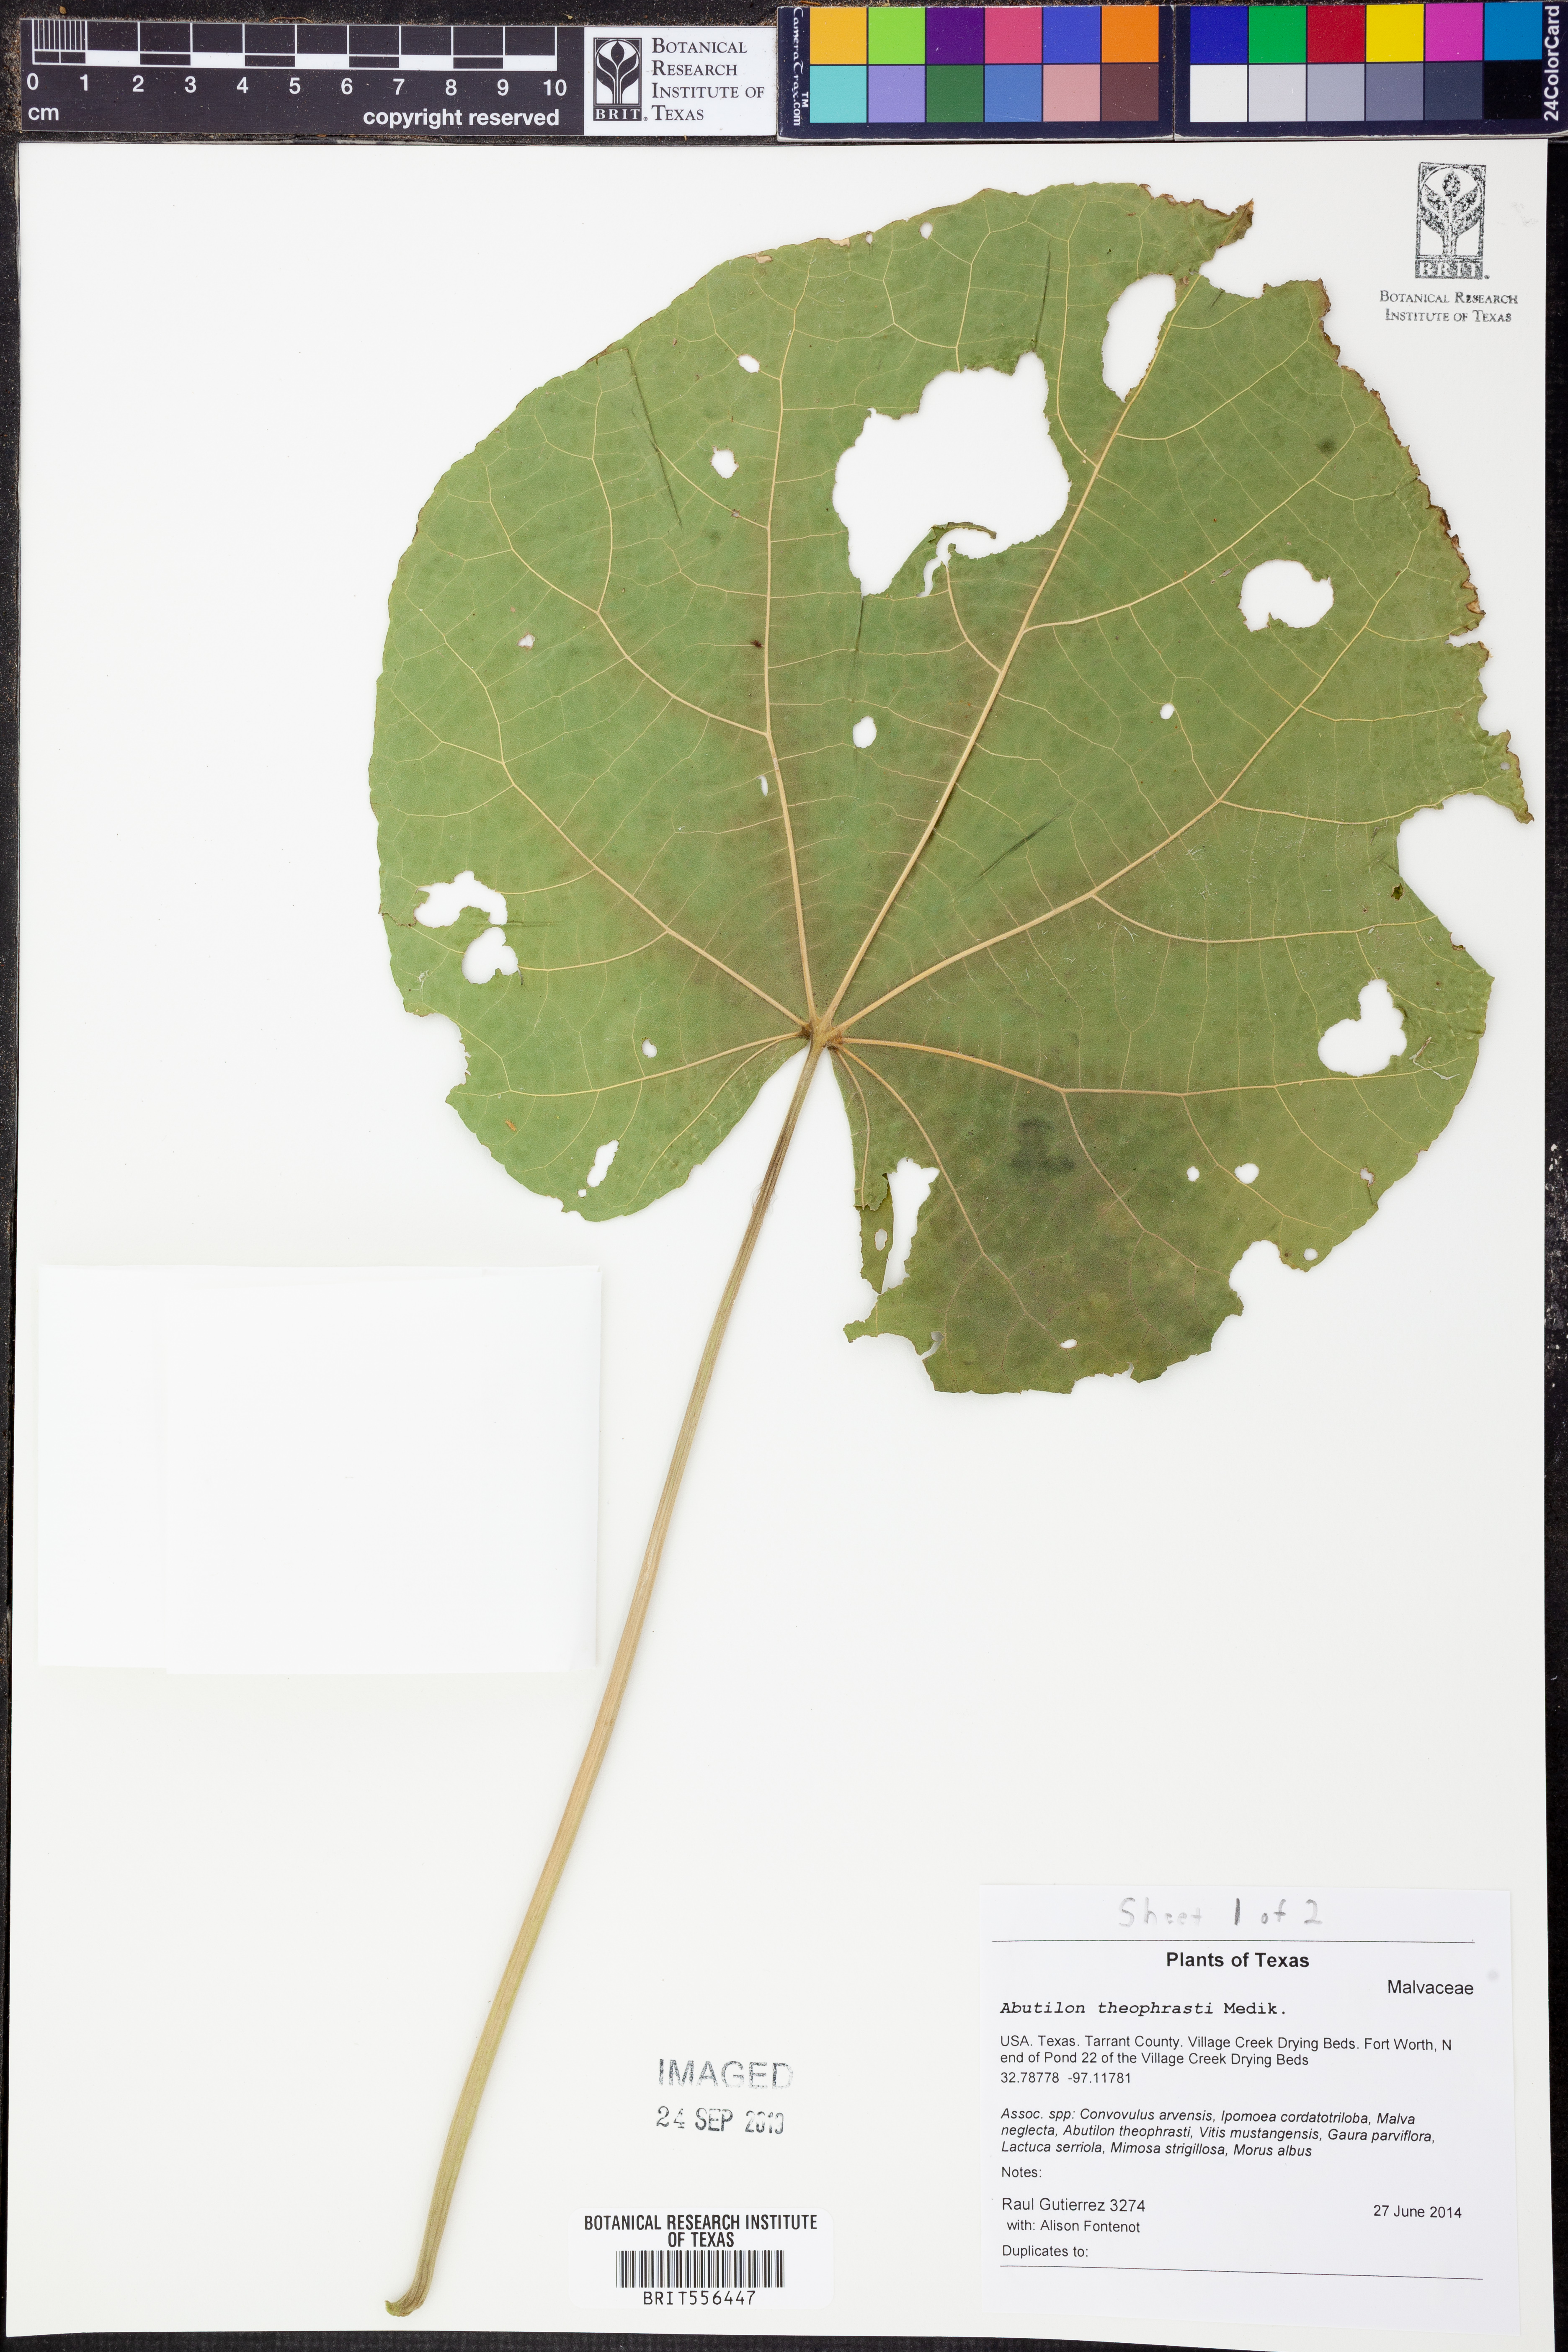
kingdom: Plantae
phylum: Tracheophyta
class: Magnoliopsida
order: Malvales
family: Malvaceae
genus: Abutilon
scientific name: Abutilon theophrasti
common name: Velvetleaf
